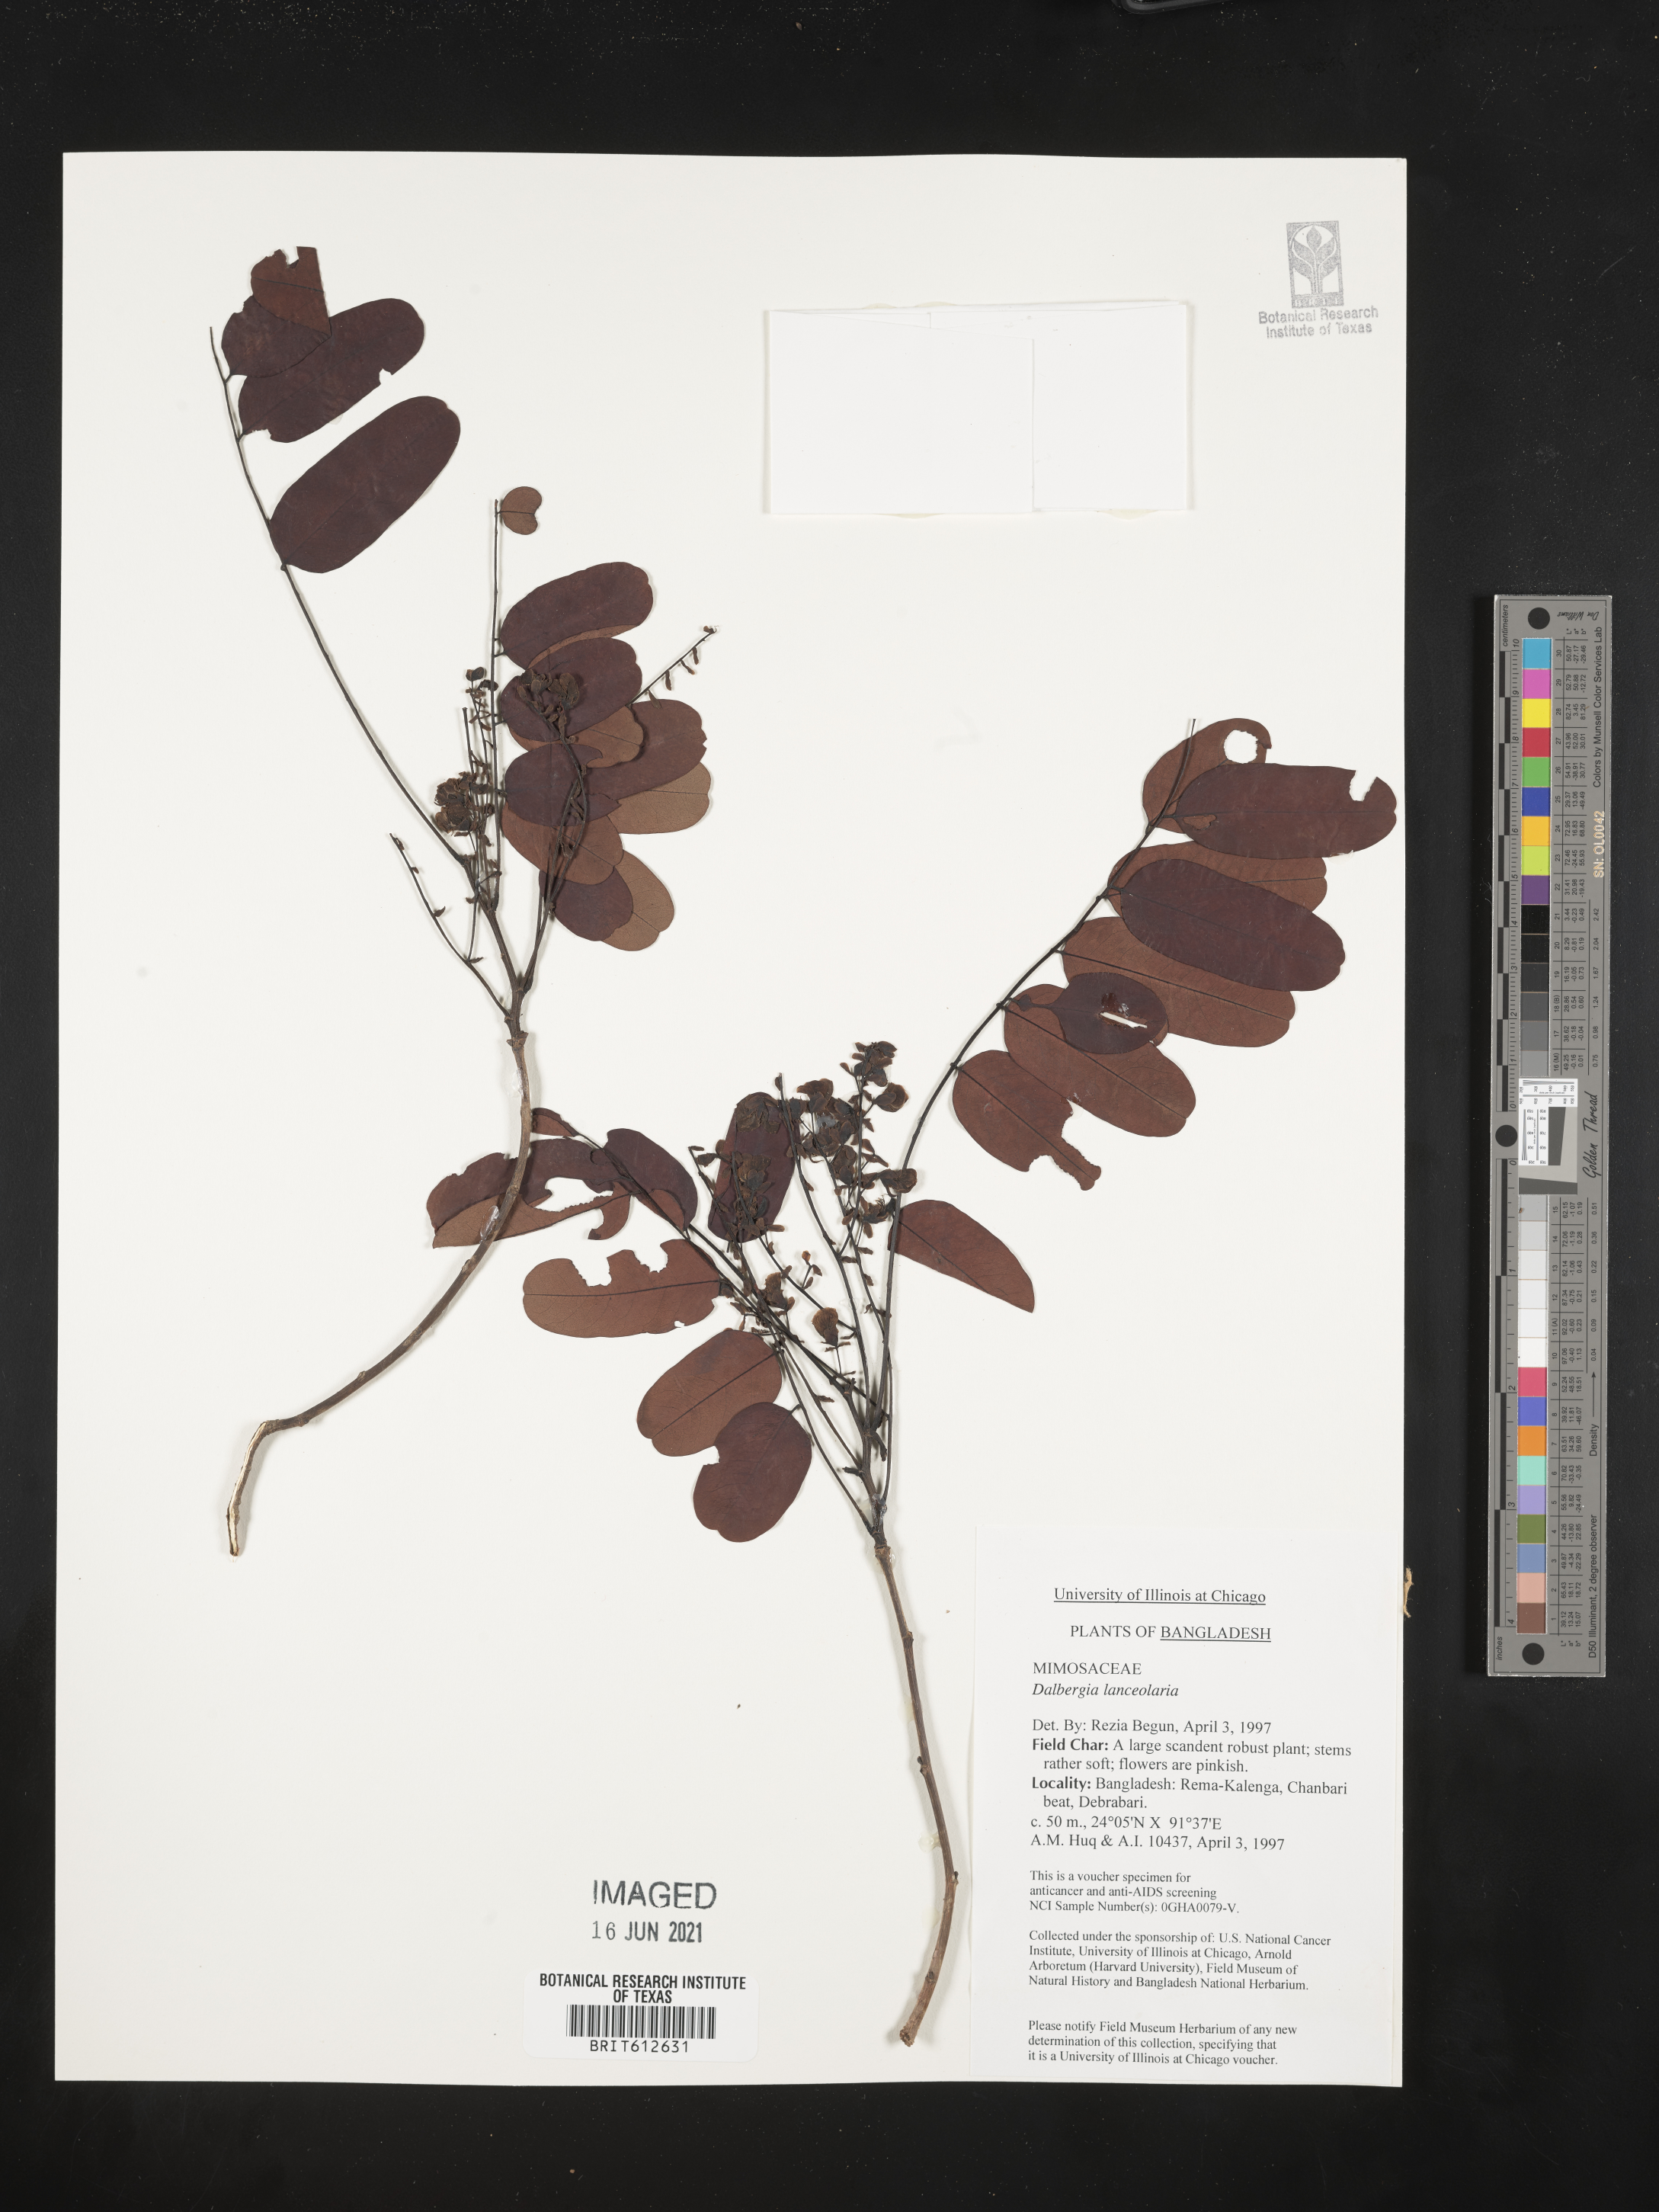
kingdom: Plantae
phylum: Tracheophyta
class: Magnoliopsida
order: Fabales
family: Fabaceae
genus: Dalbergia
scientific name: Dalbergia lanceolaria
